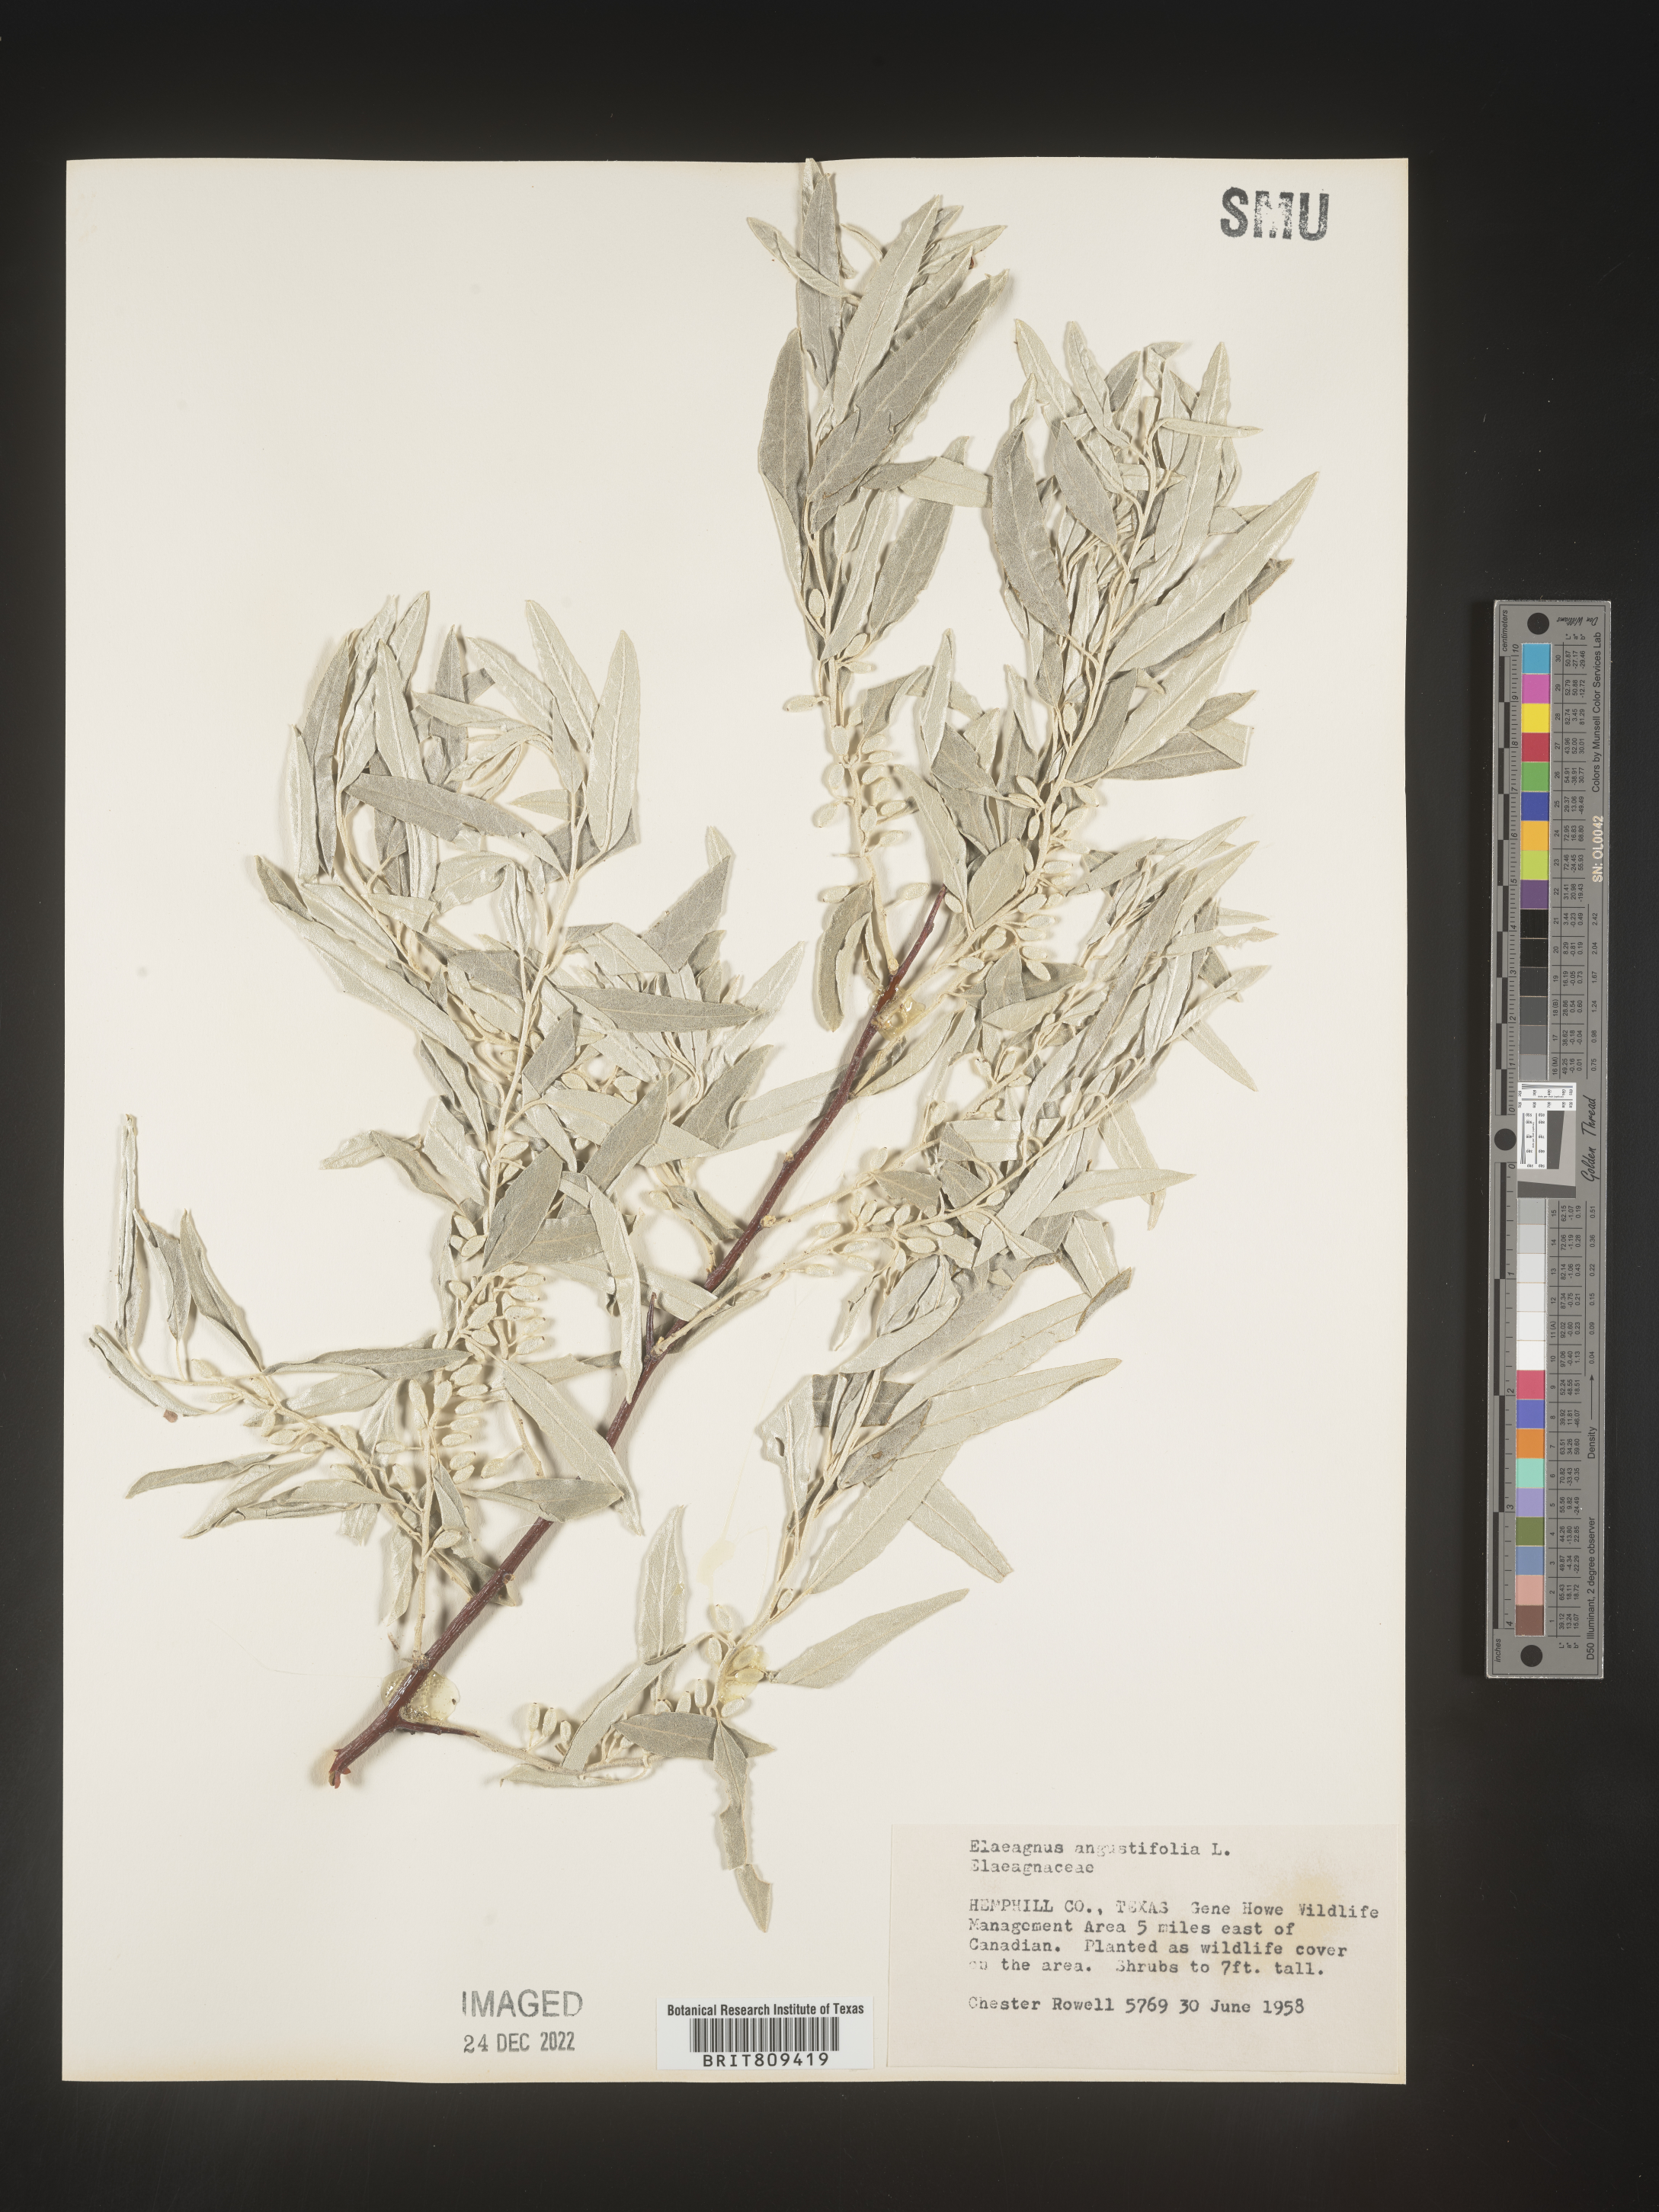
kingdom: Plantae
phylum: Tracheophyta
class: Magnoliopsida
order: Rosales
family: Elaeagnaceae
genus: Elaeagnus
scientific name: Elaeagnus
